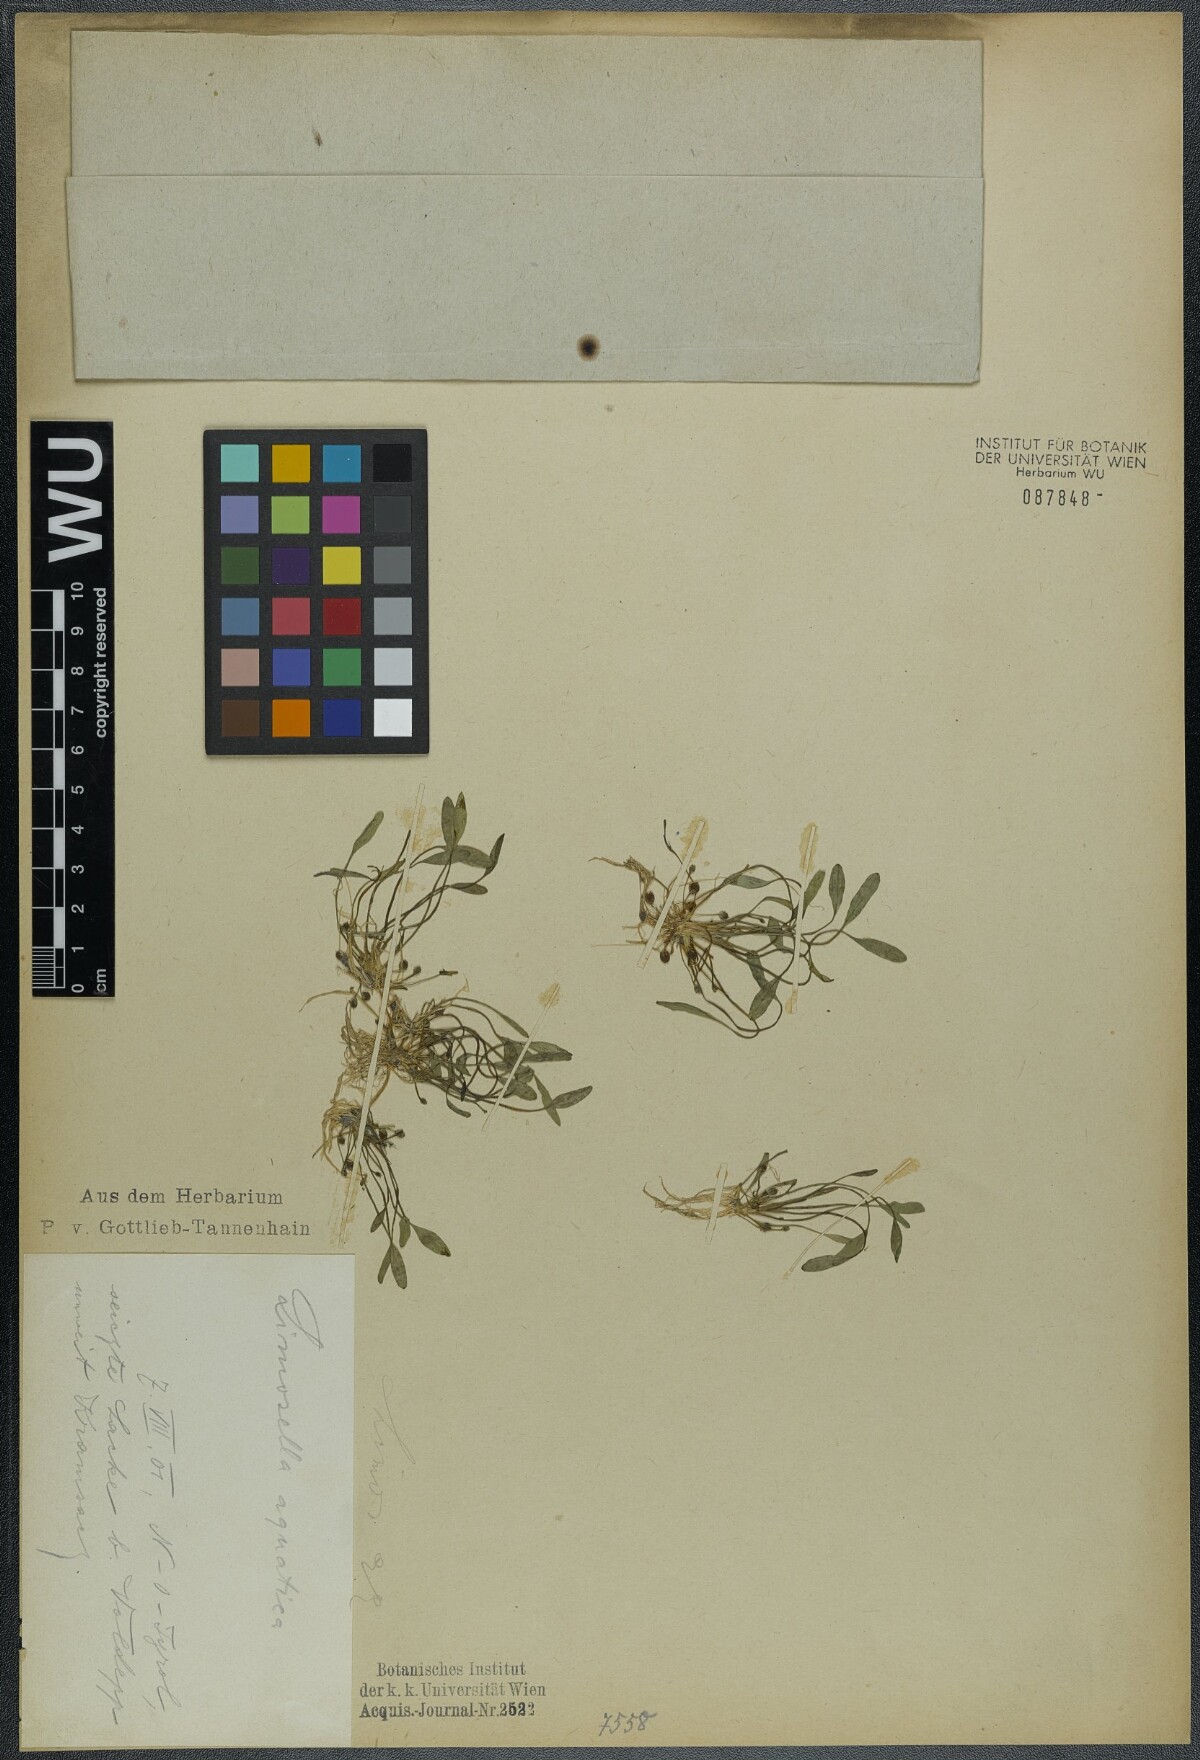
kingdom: Plantae
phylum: Tracheophyta
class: Magnoliopsida
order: Lamiales
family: Scrophulariaceae
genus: Limosella
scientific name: Limosella aquatica
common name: Mudwort
